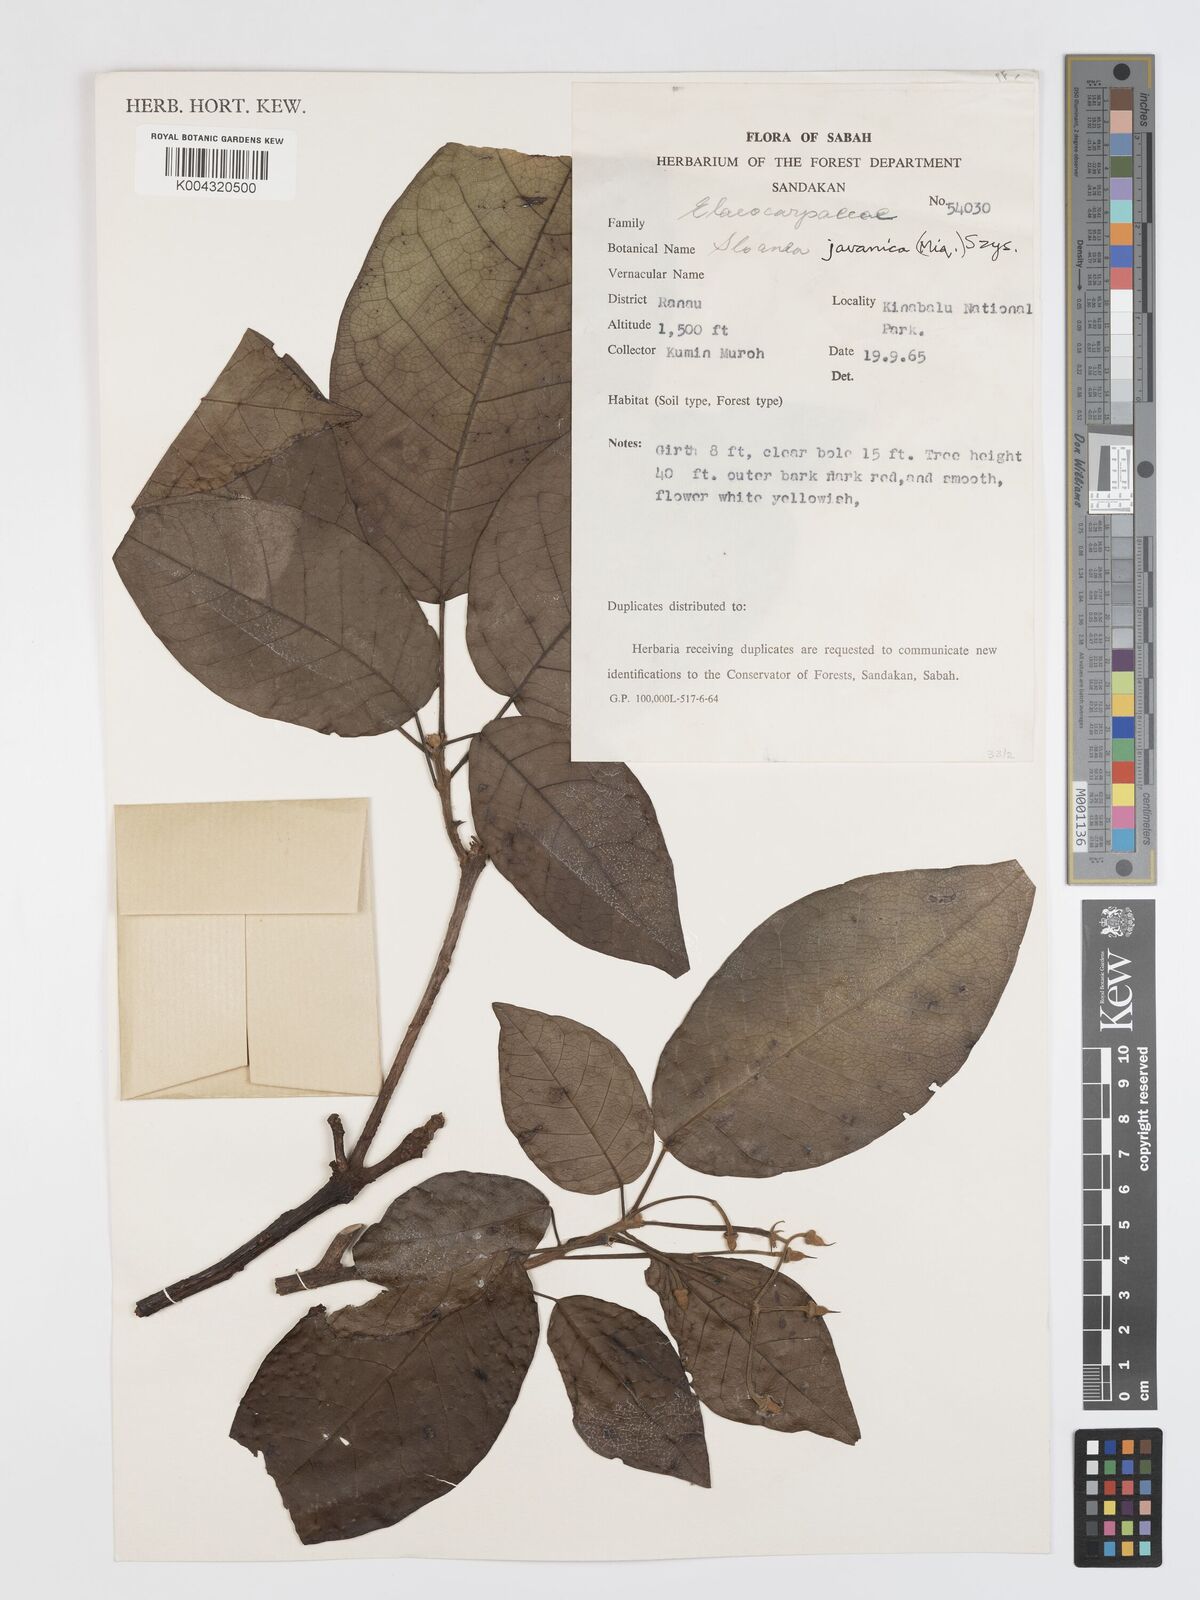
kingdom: Plantae
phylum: Tracheophyta
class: Magnoliopsida
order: Oxalidales
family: Elaeocarpaceae
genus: Sloanea
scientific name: Sloanea javanica
